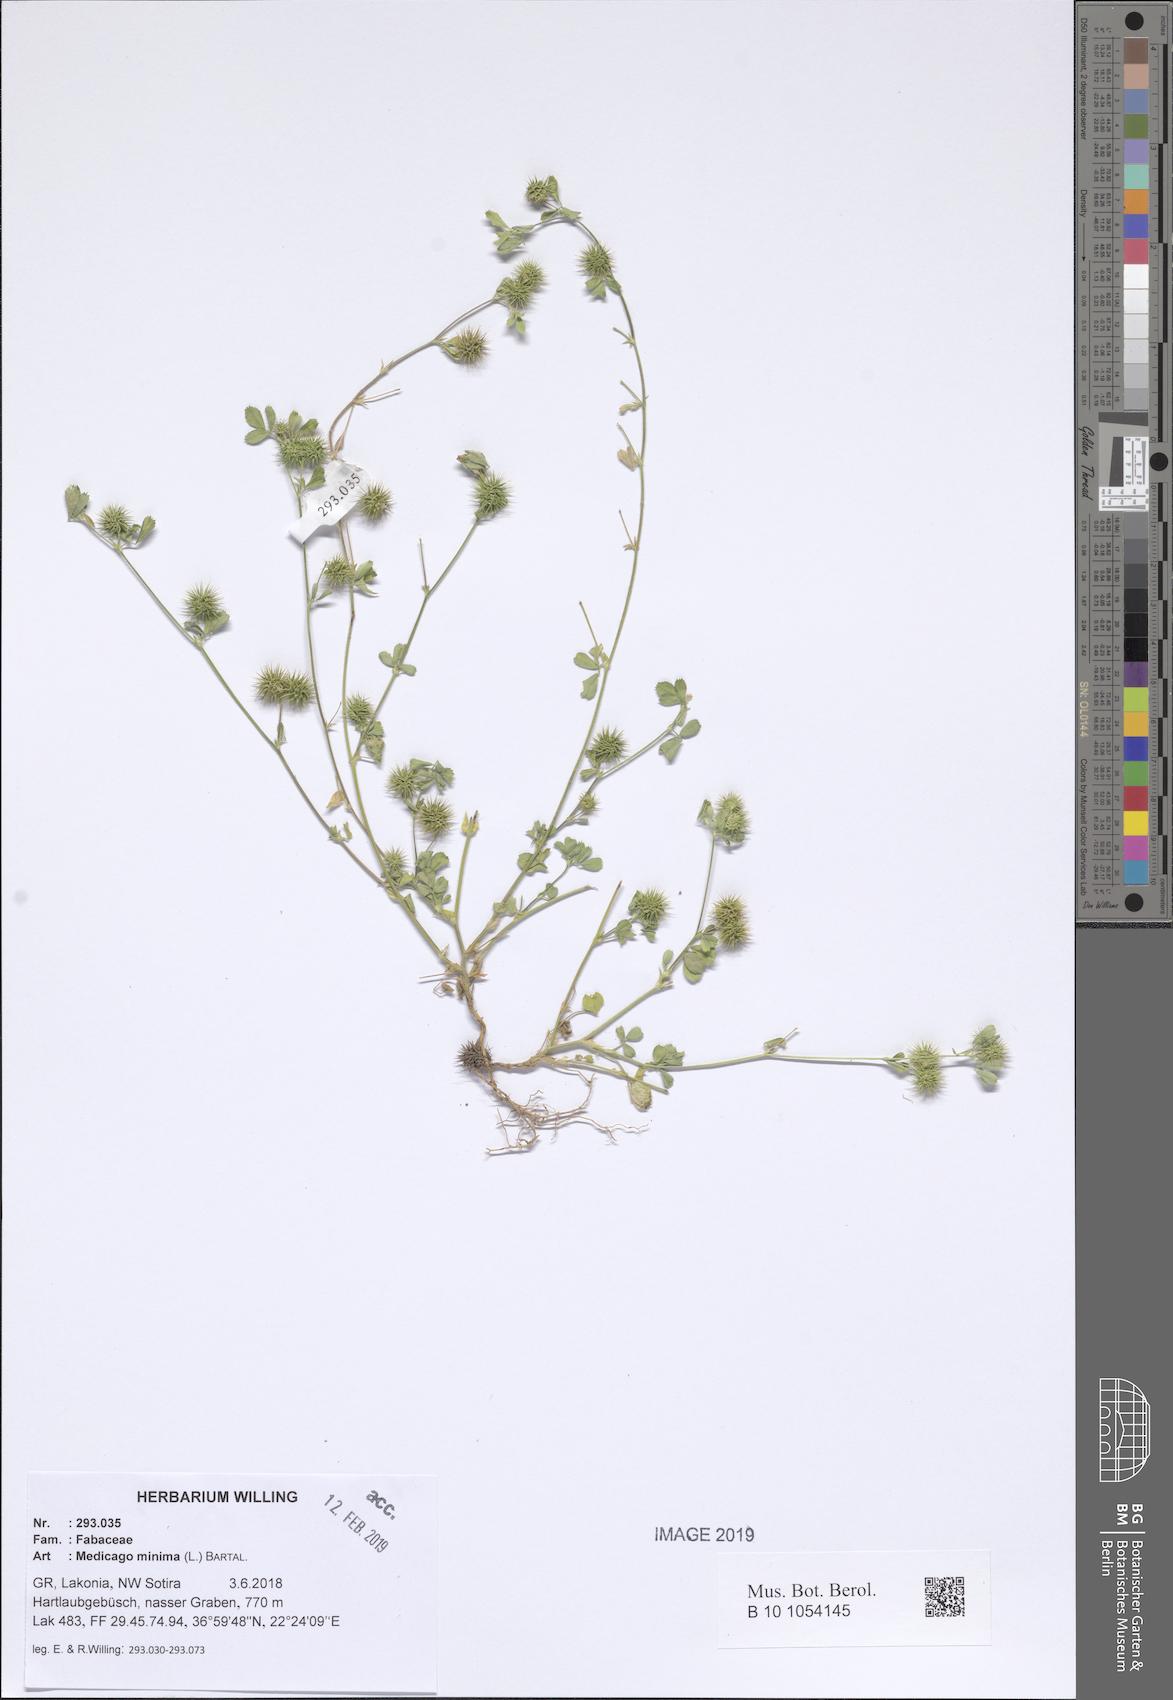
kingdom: Plantae
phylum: Tracheophyta
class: Magnoliopsida
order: Fabales
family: Fabaceae
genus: Medicago
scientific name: Medicago minima
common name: Little bur-clover
